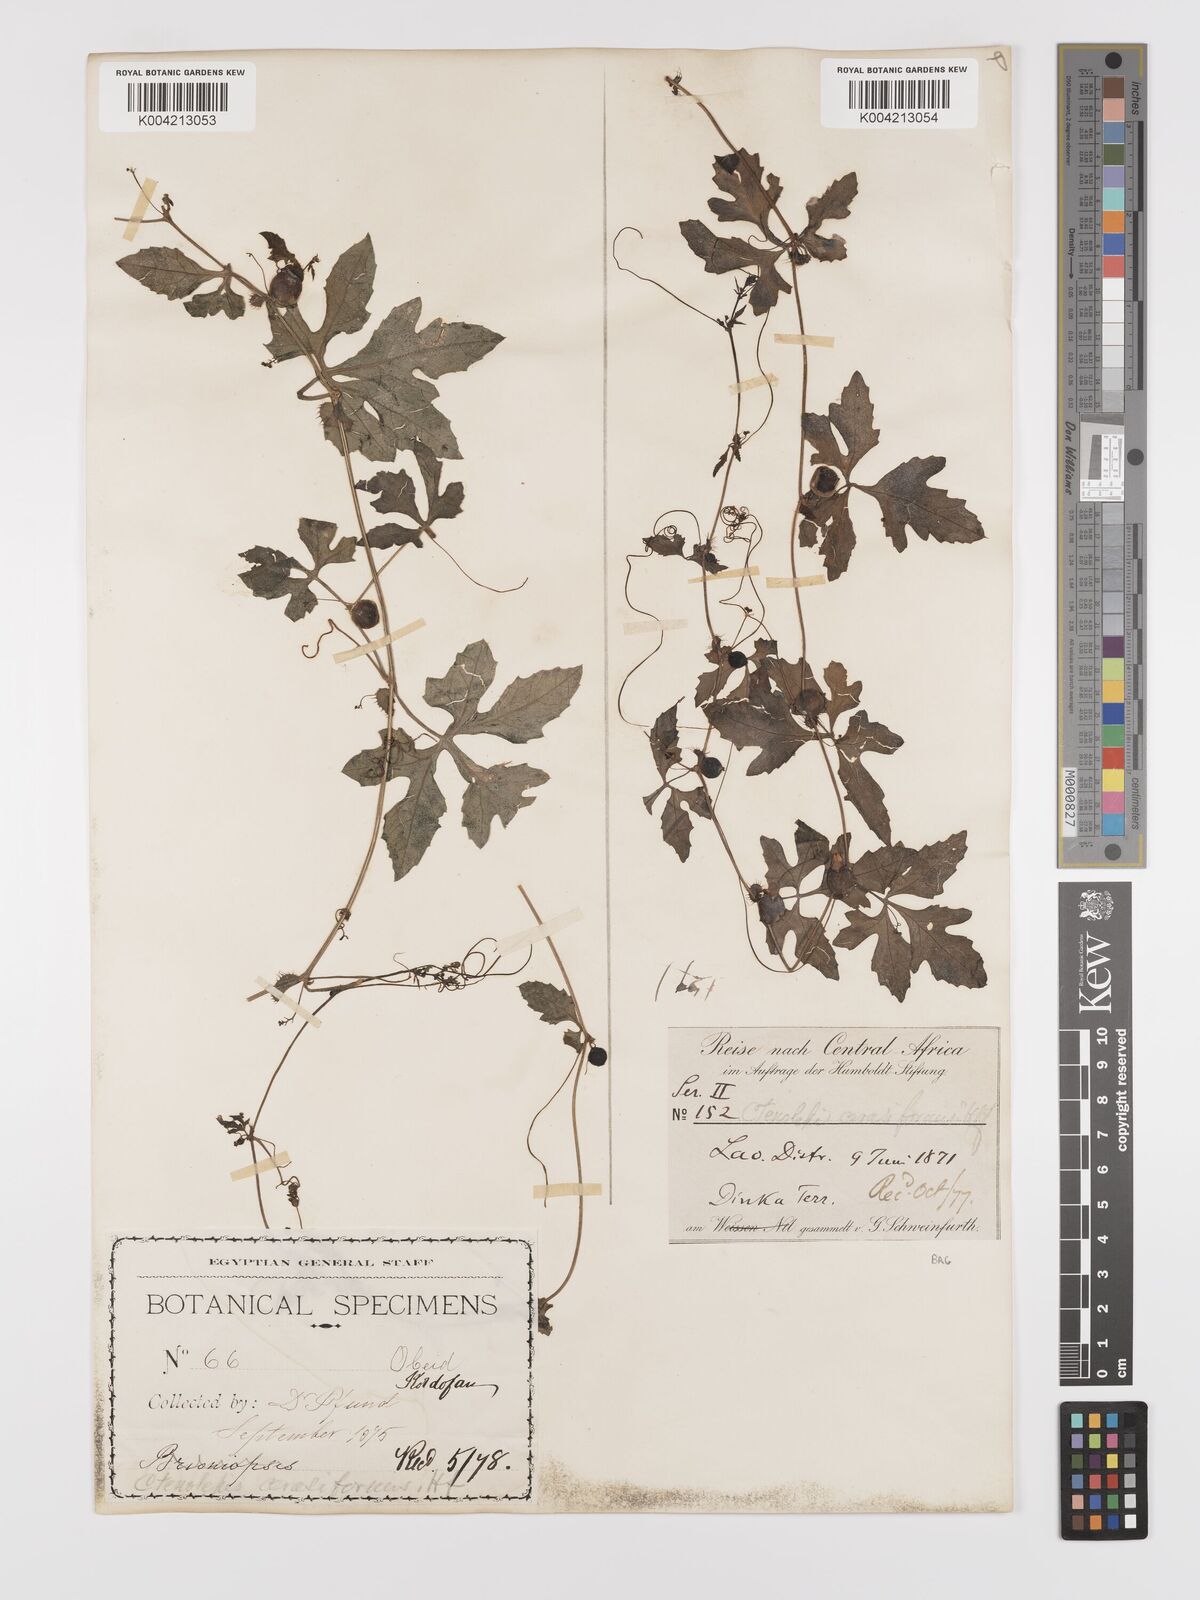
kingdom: Plantae
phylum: Tracheophyta
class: Magnoliopsida
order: Cucurbitales
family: Cucurbitaceae
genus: Blastania
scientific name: Blastania cerasiformis
